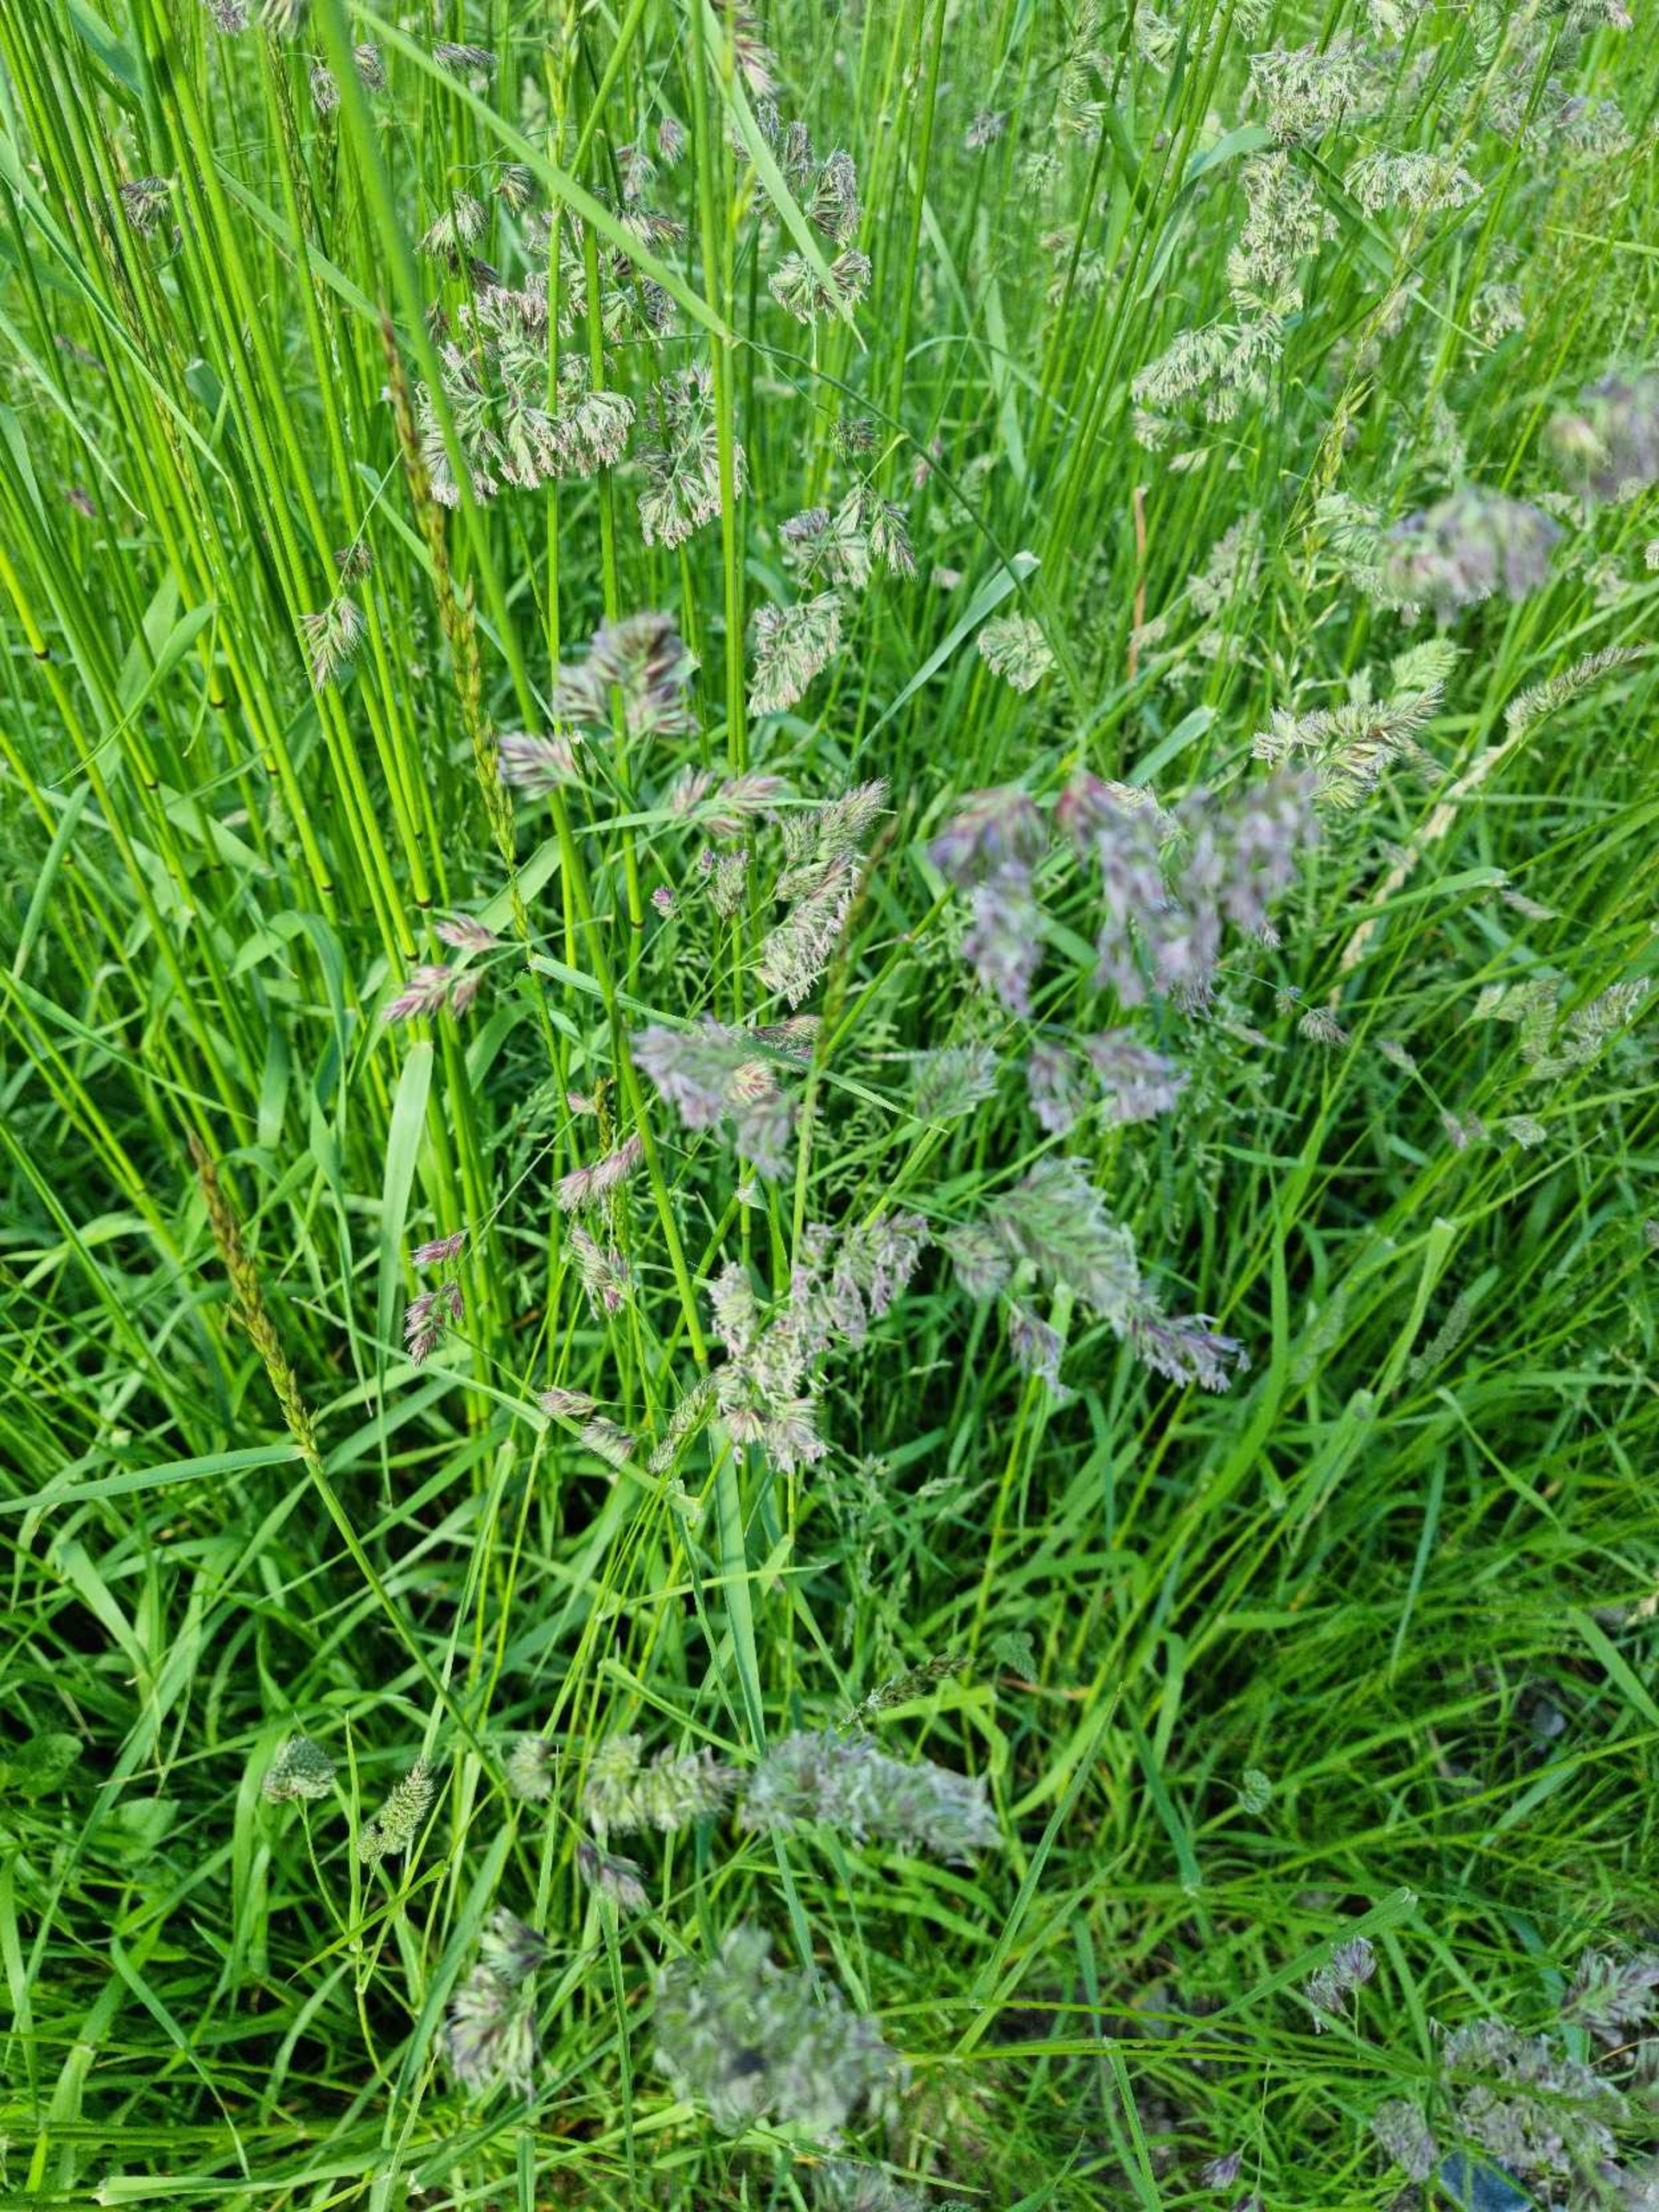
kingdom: Plantae
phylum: Tracheophyta
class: Liliopsida
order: Poales
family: Poaceae
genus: Dactylis
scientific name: Dactylis glomerata
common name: Almindelig hundegræs
